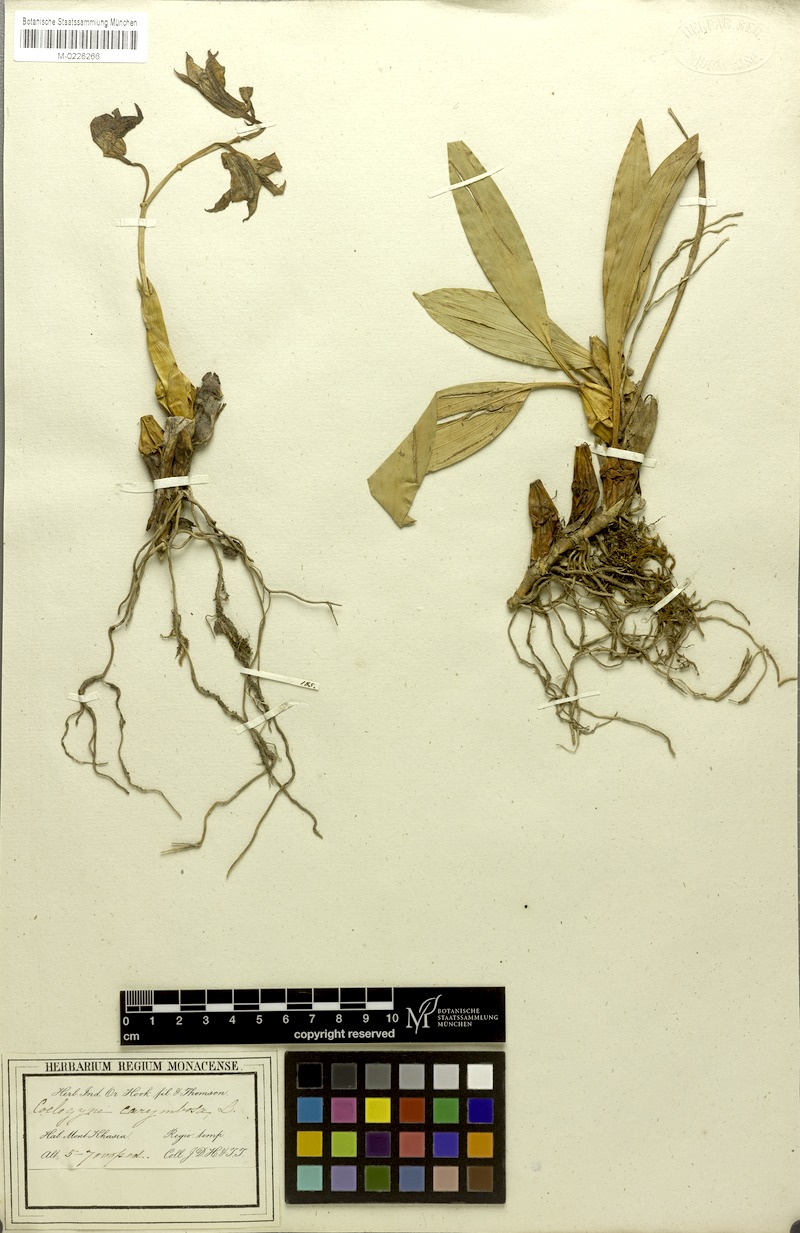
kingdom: Plantae
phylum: Tracheophyta
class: Liliopsida
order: Asparagales
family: Orchidaceae
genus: Coelogyne
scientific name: Coelogyne corymbosa
